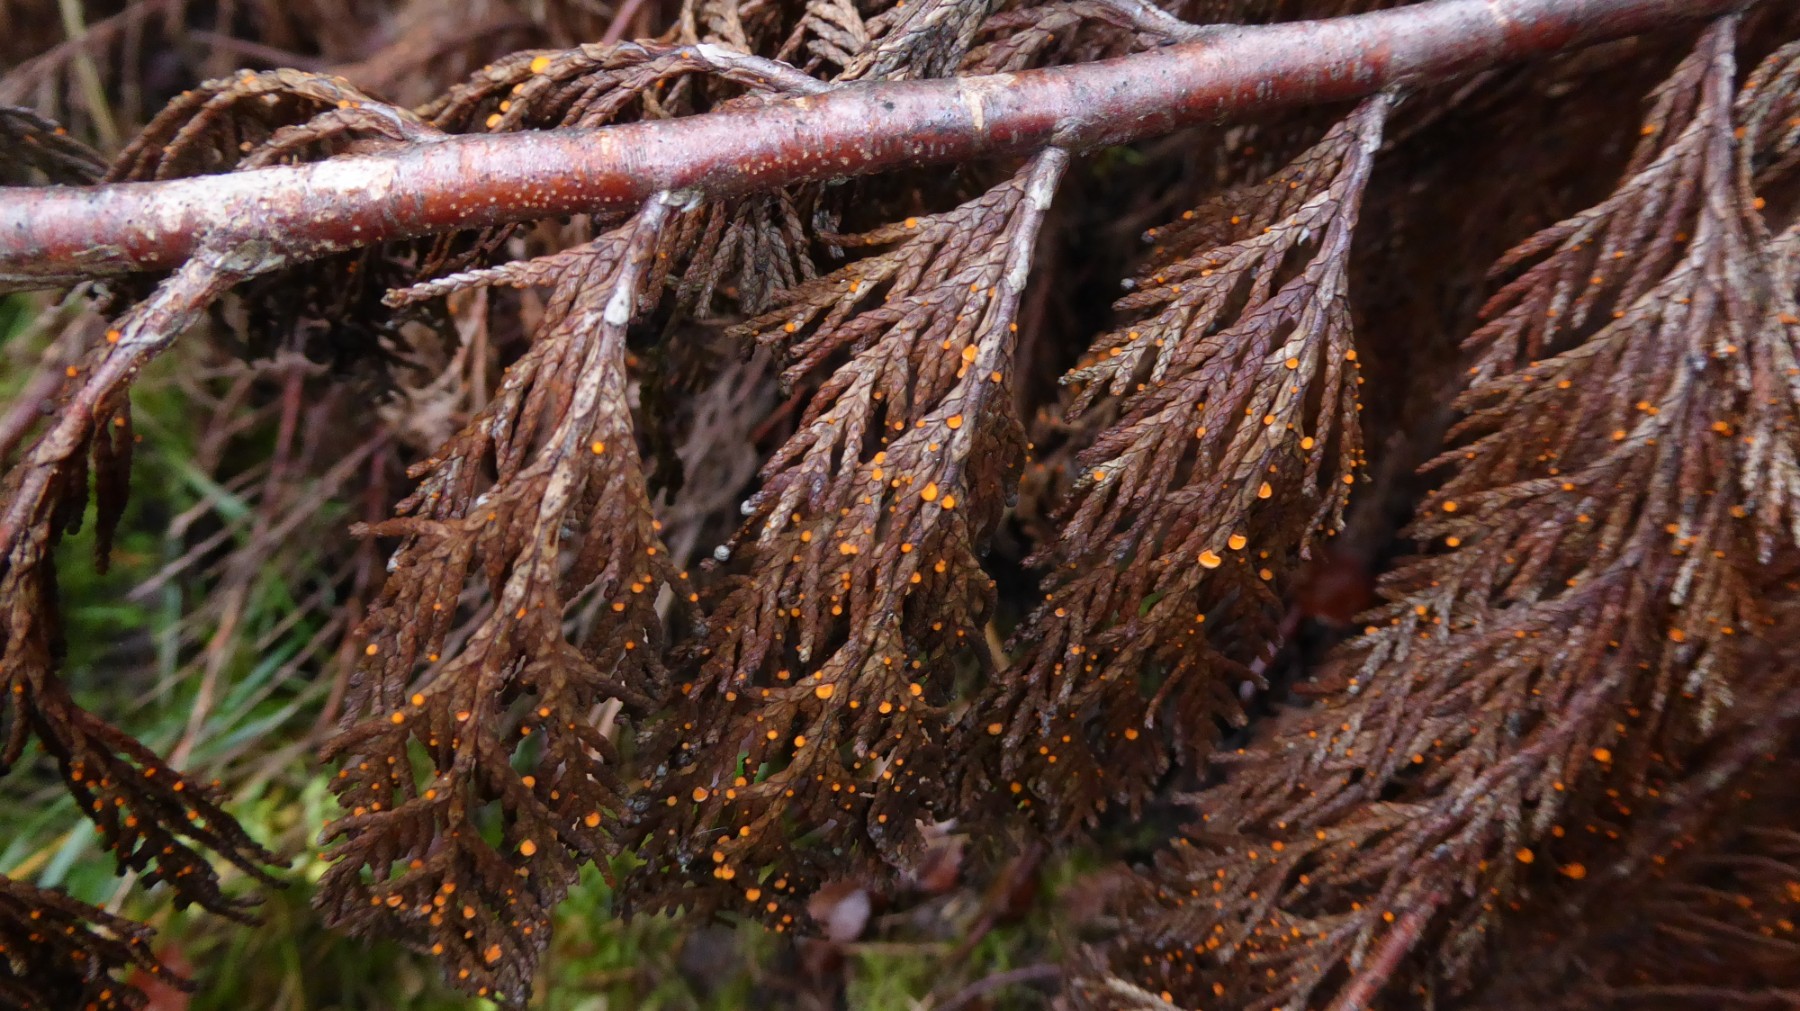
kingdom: Fungi
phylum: Ascomycota
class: Pezizomycetes
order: Pezizales
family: Sarcoscyphaceae
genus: Pithya
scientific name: Pithya cupressina
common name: lille dukatbæger
